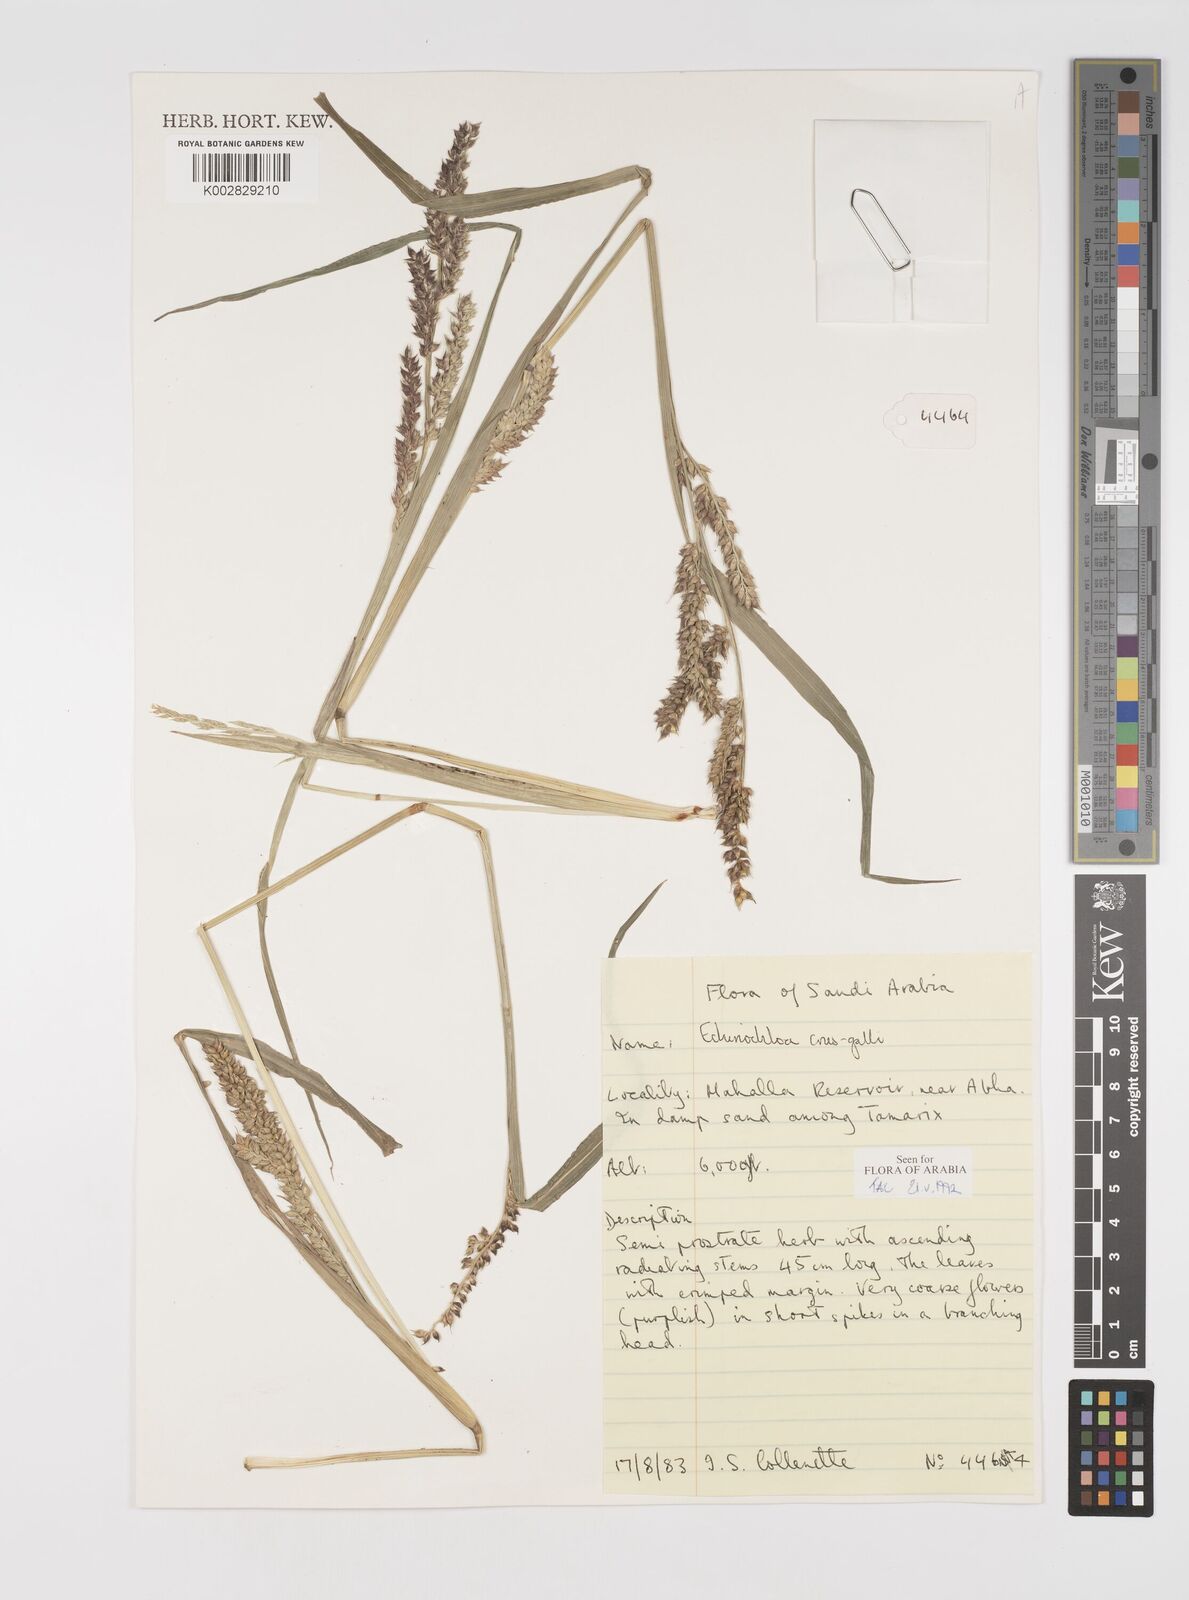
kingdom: Plantae
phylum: Tracheophyta
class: Liliopsida
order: Poales
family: Poaceae
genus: Echinochloa
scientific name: Echinochloa crus-galli
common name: Cockspur
